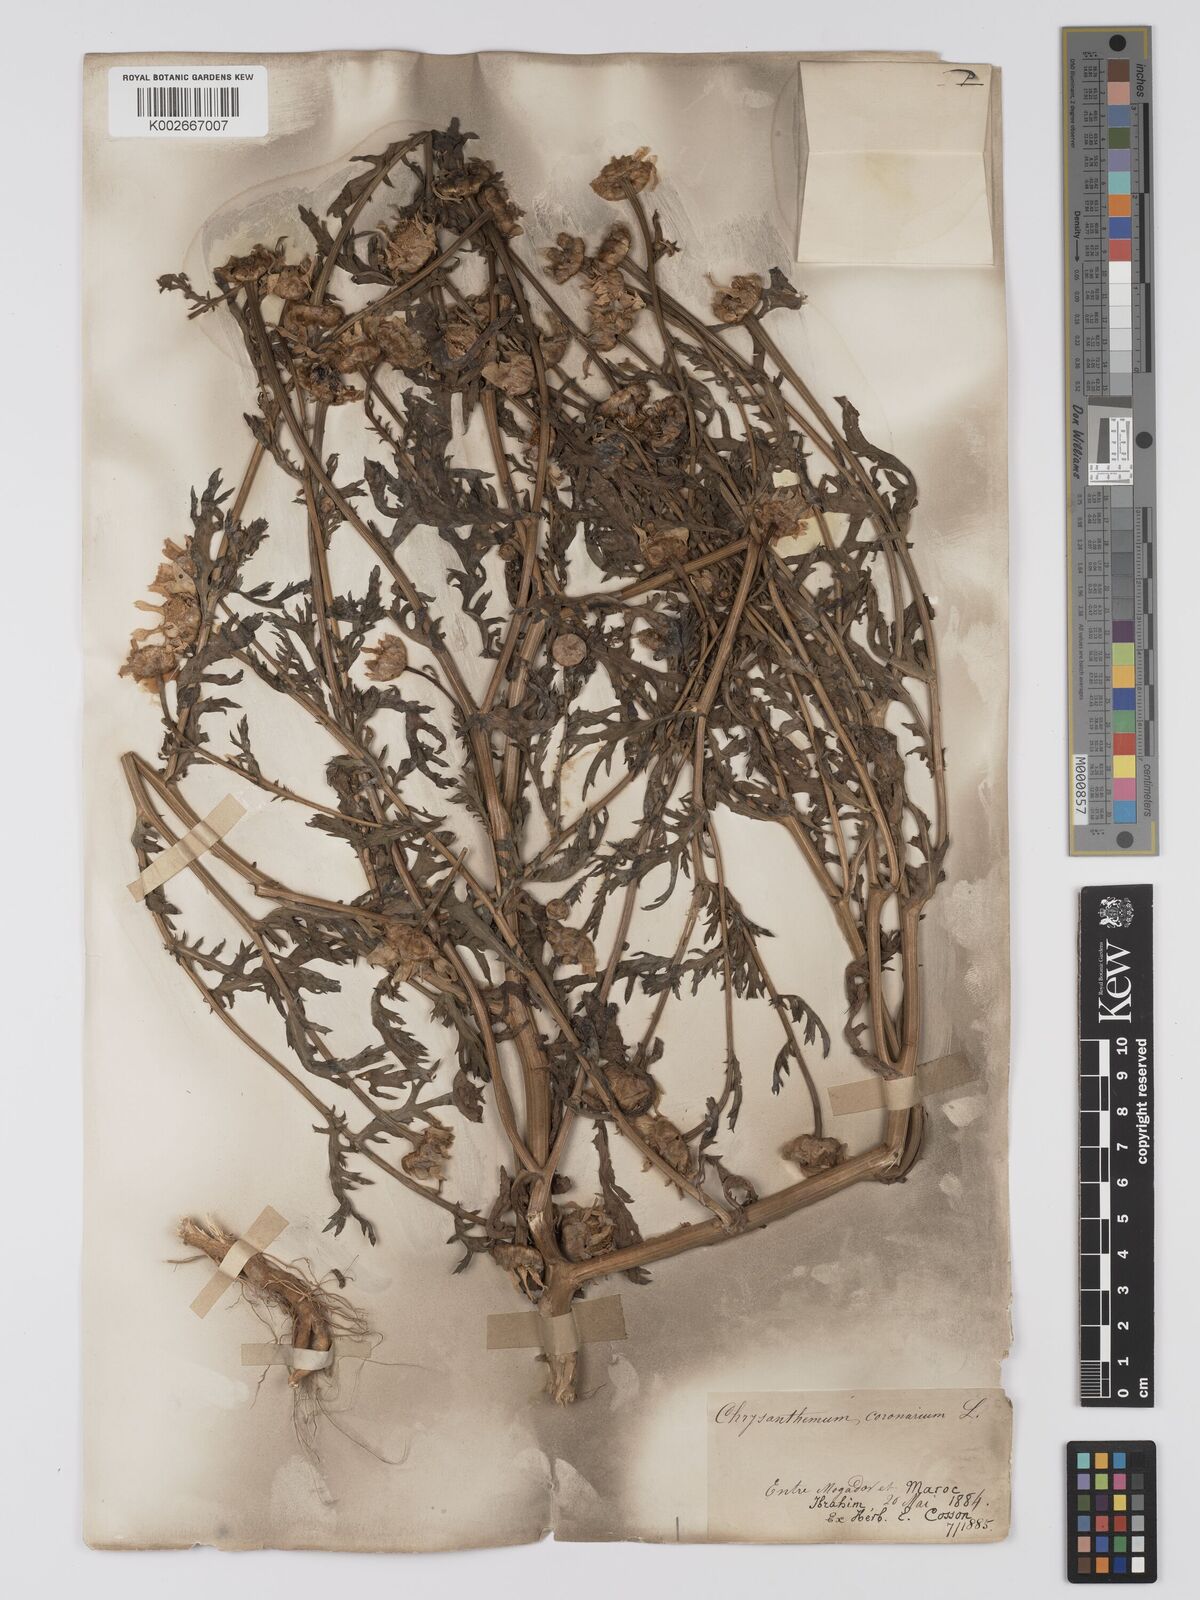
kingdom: Plantae
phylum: Tracheophyta
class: Magnoliopsida
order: Asterales
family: Asteraceae
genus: Glebionis
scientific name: Glebionis coronaria
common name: Crowndaisy
